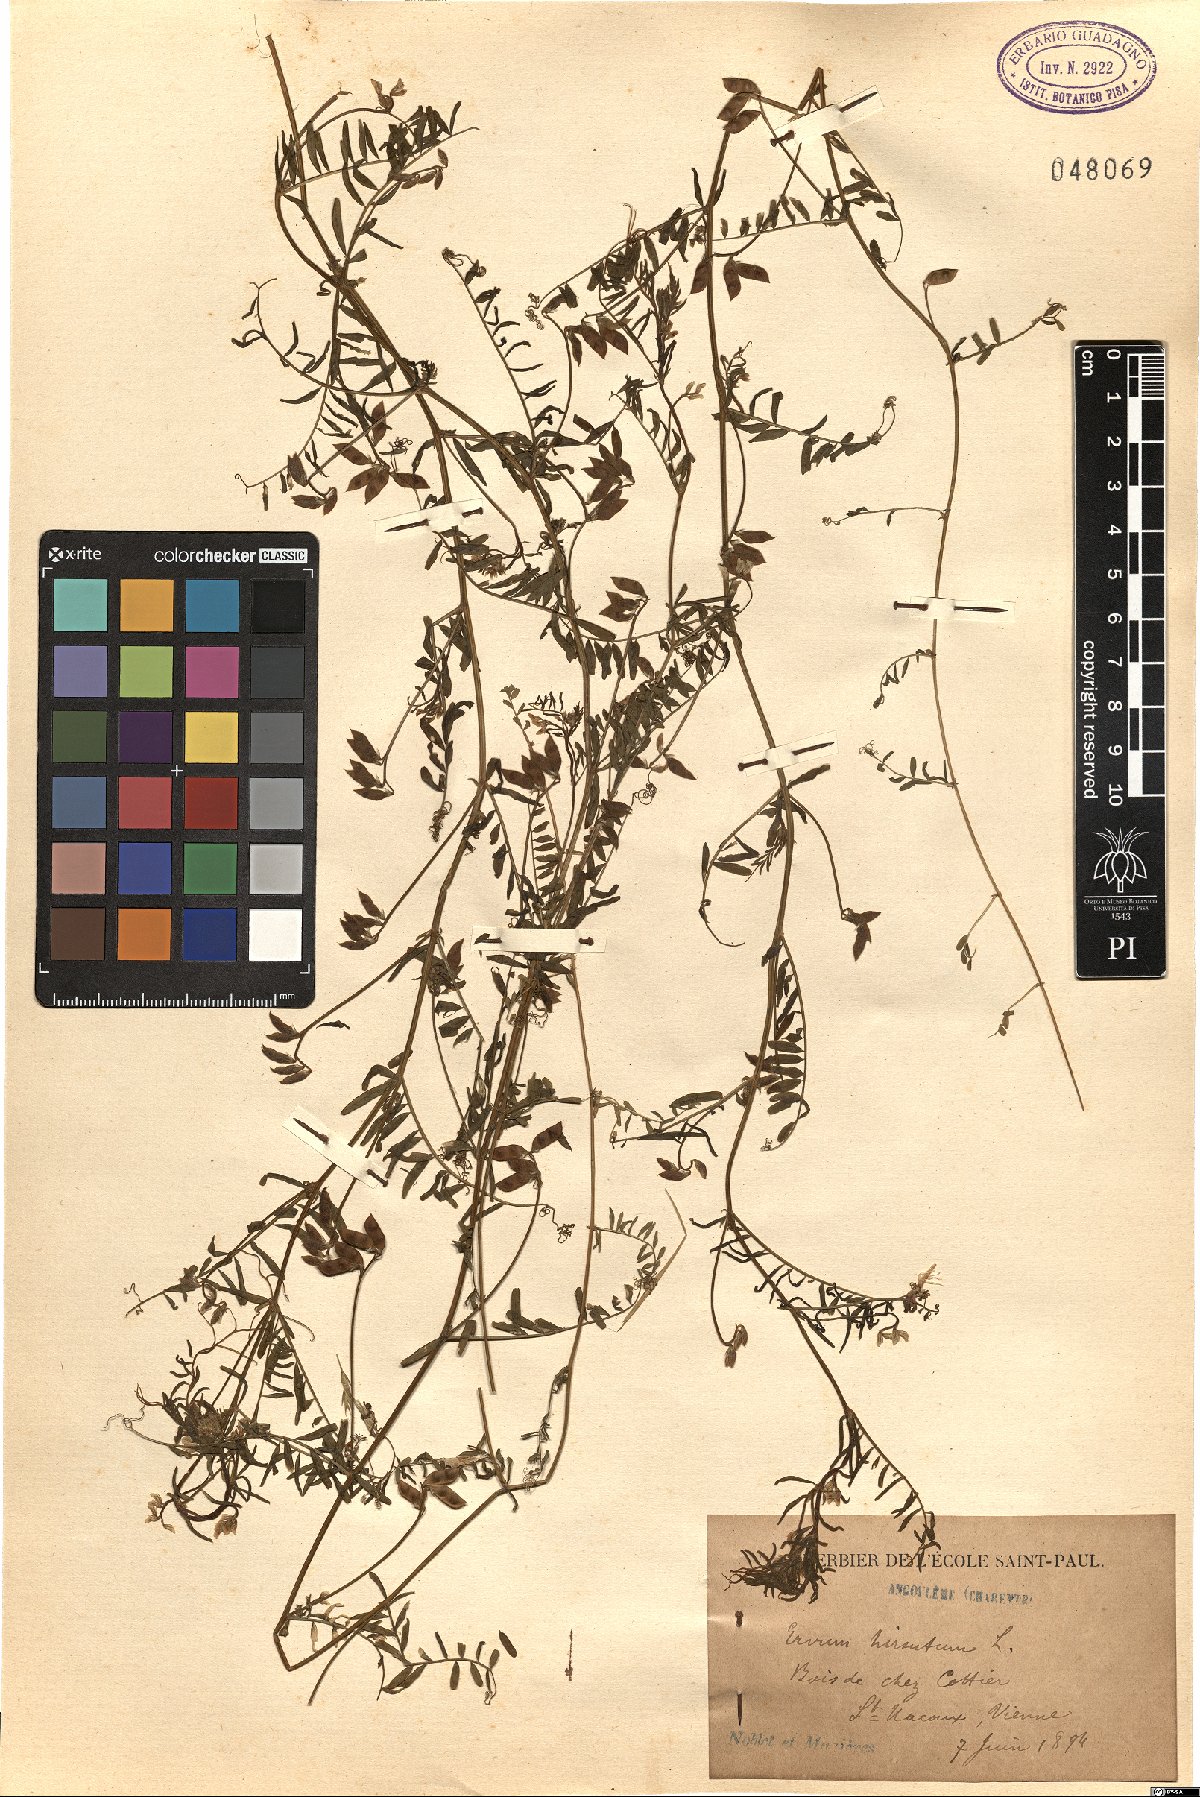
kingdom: Plantae
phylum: Tracheophyta
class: Magnoliopsida
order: Fabales
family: Fabaceae
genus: Vicia
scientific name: Vicia hirsuta
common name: Tiny vetch
